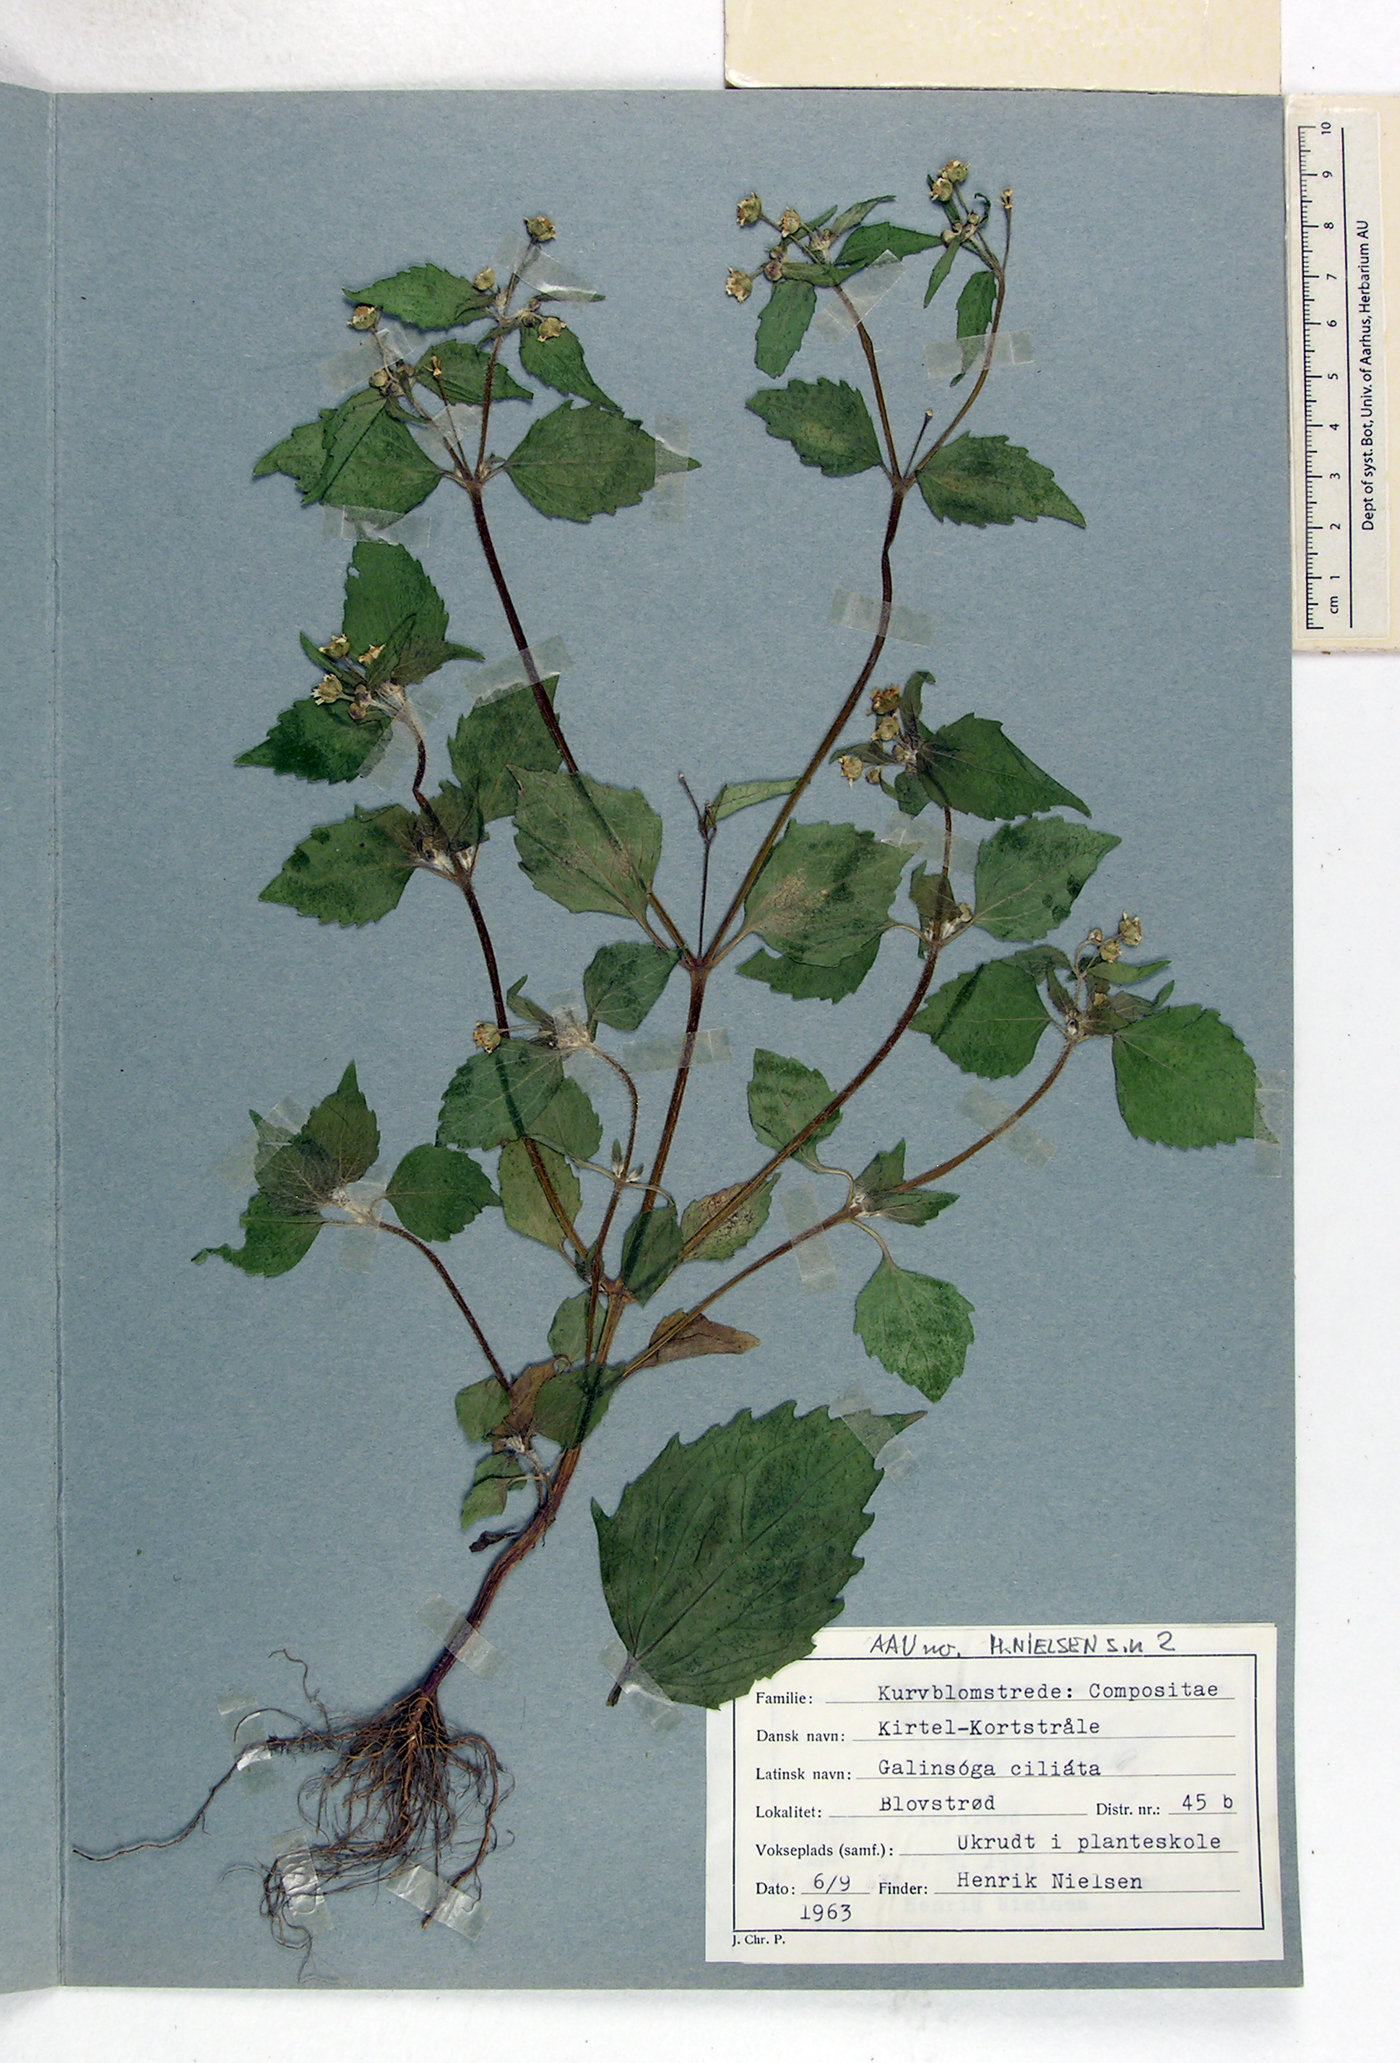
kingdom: Plantae
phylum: Tracheophyta
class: Magnoliopsida
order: Asterales
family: Asteraceae
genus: Galinsoga
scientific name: Galinsoga quadriradiata
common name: Shaggy soldier
